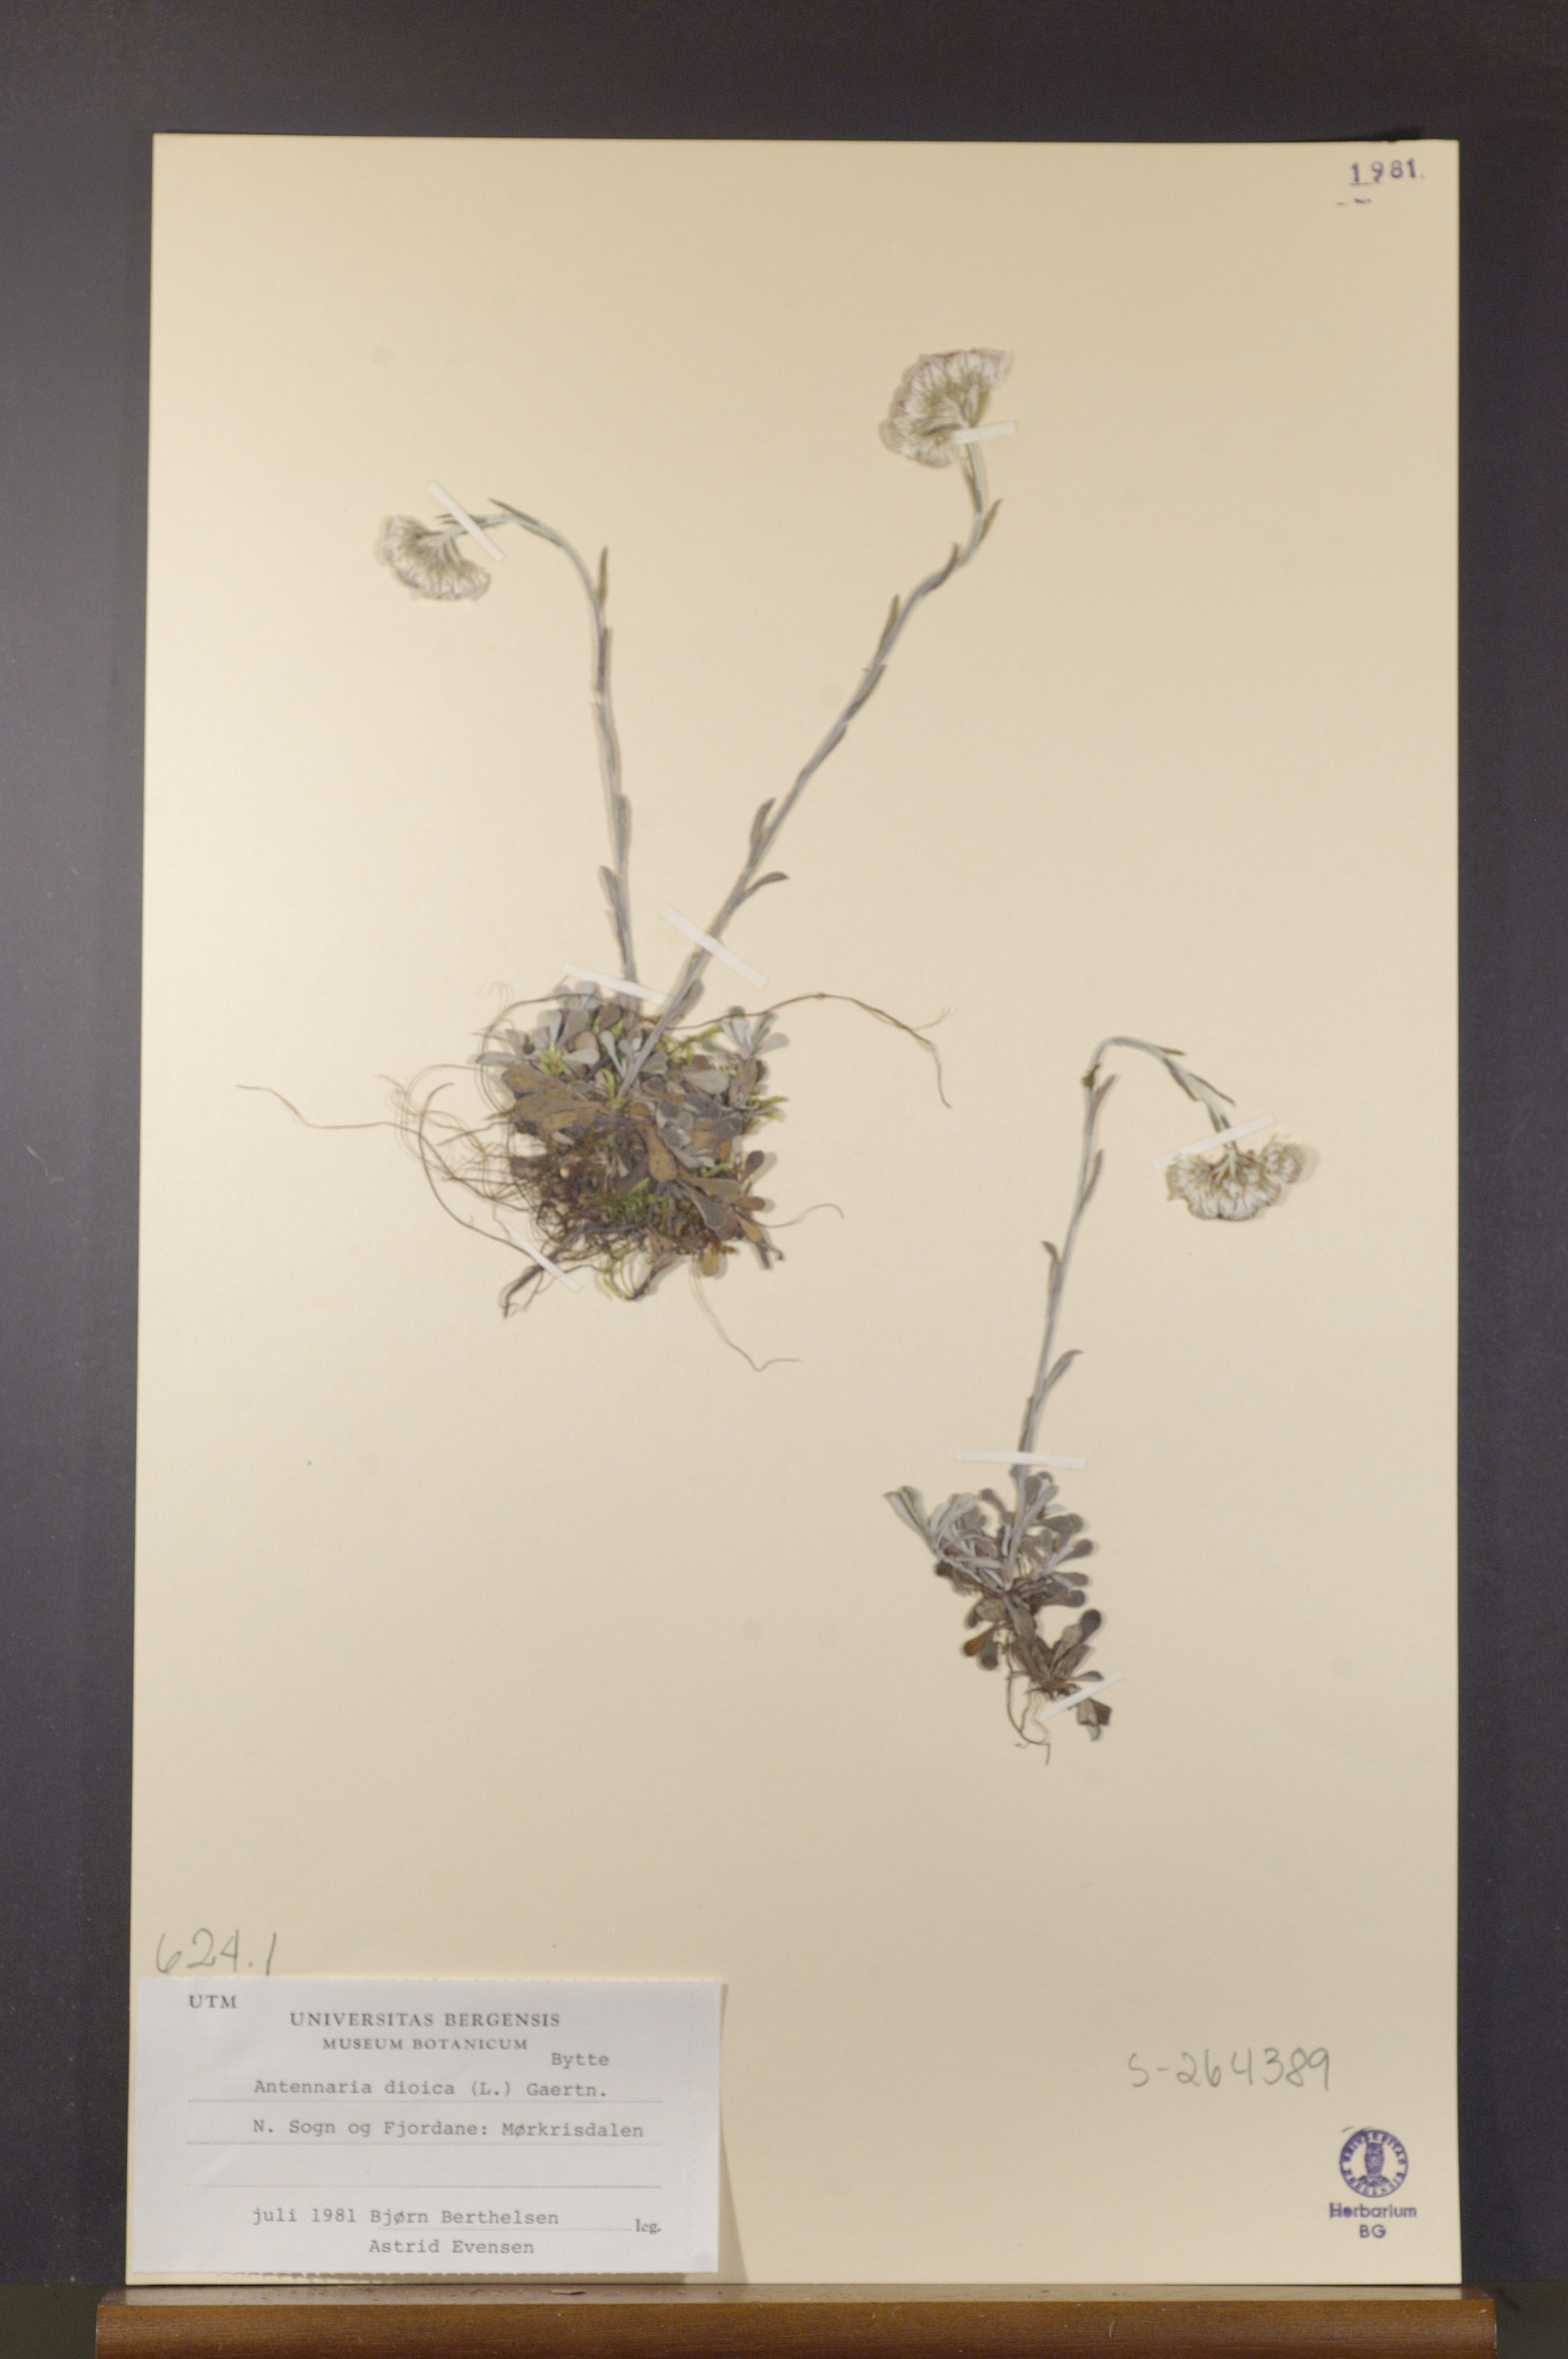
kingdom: Plantae
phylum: Tracheophyta
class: Magnoliopsida
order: Asterales
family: Asteraceae
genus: Antennaria
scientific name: Antennaria dioica
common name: Mountain everlasting
